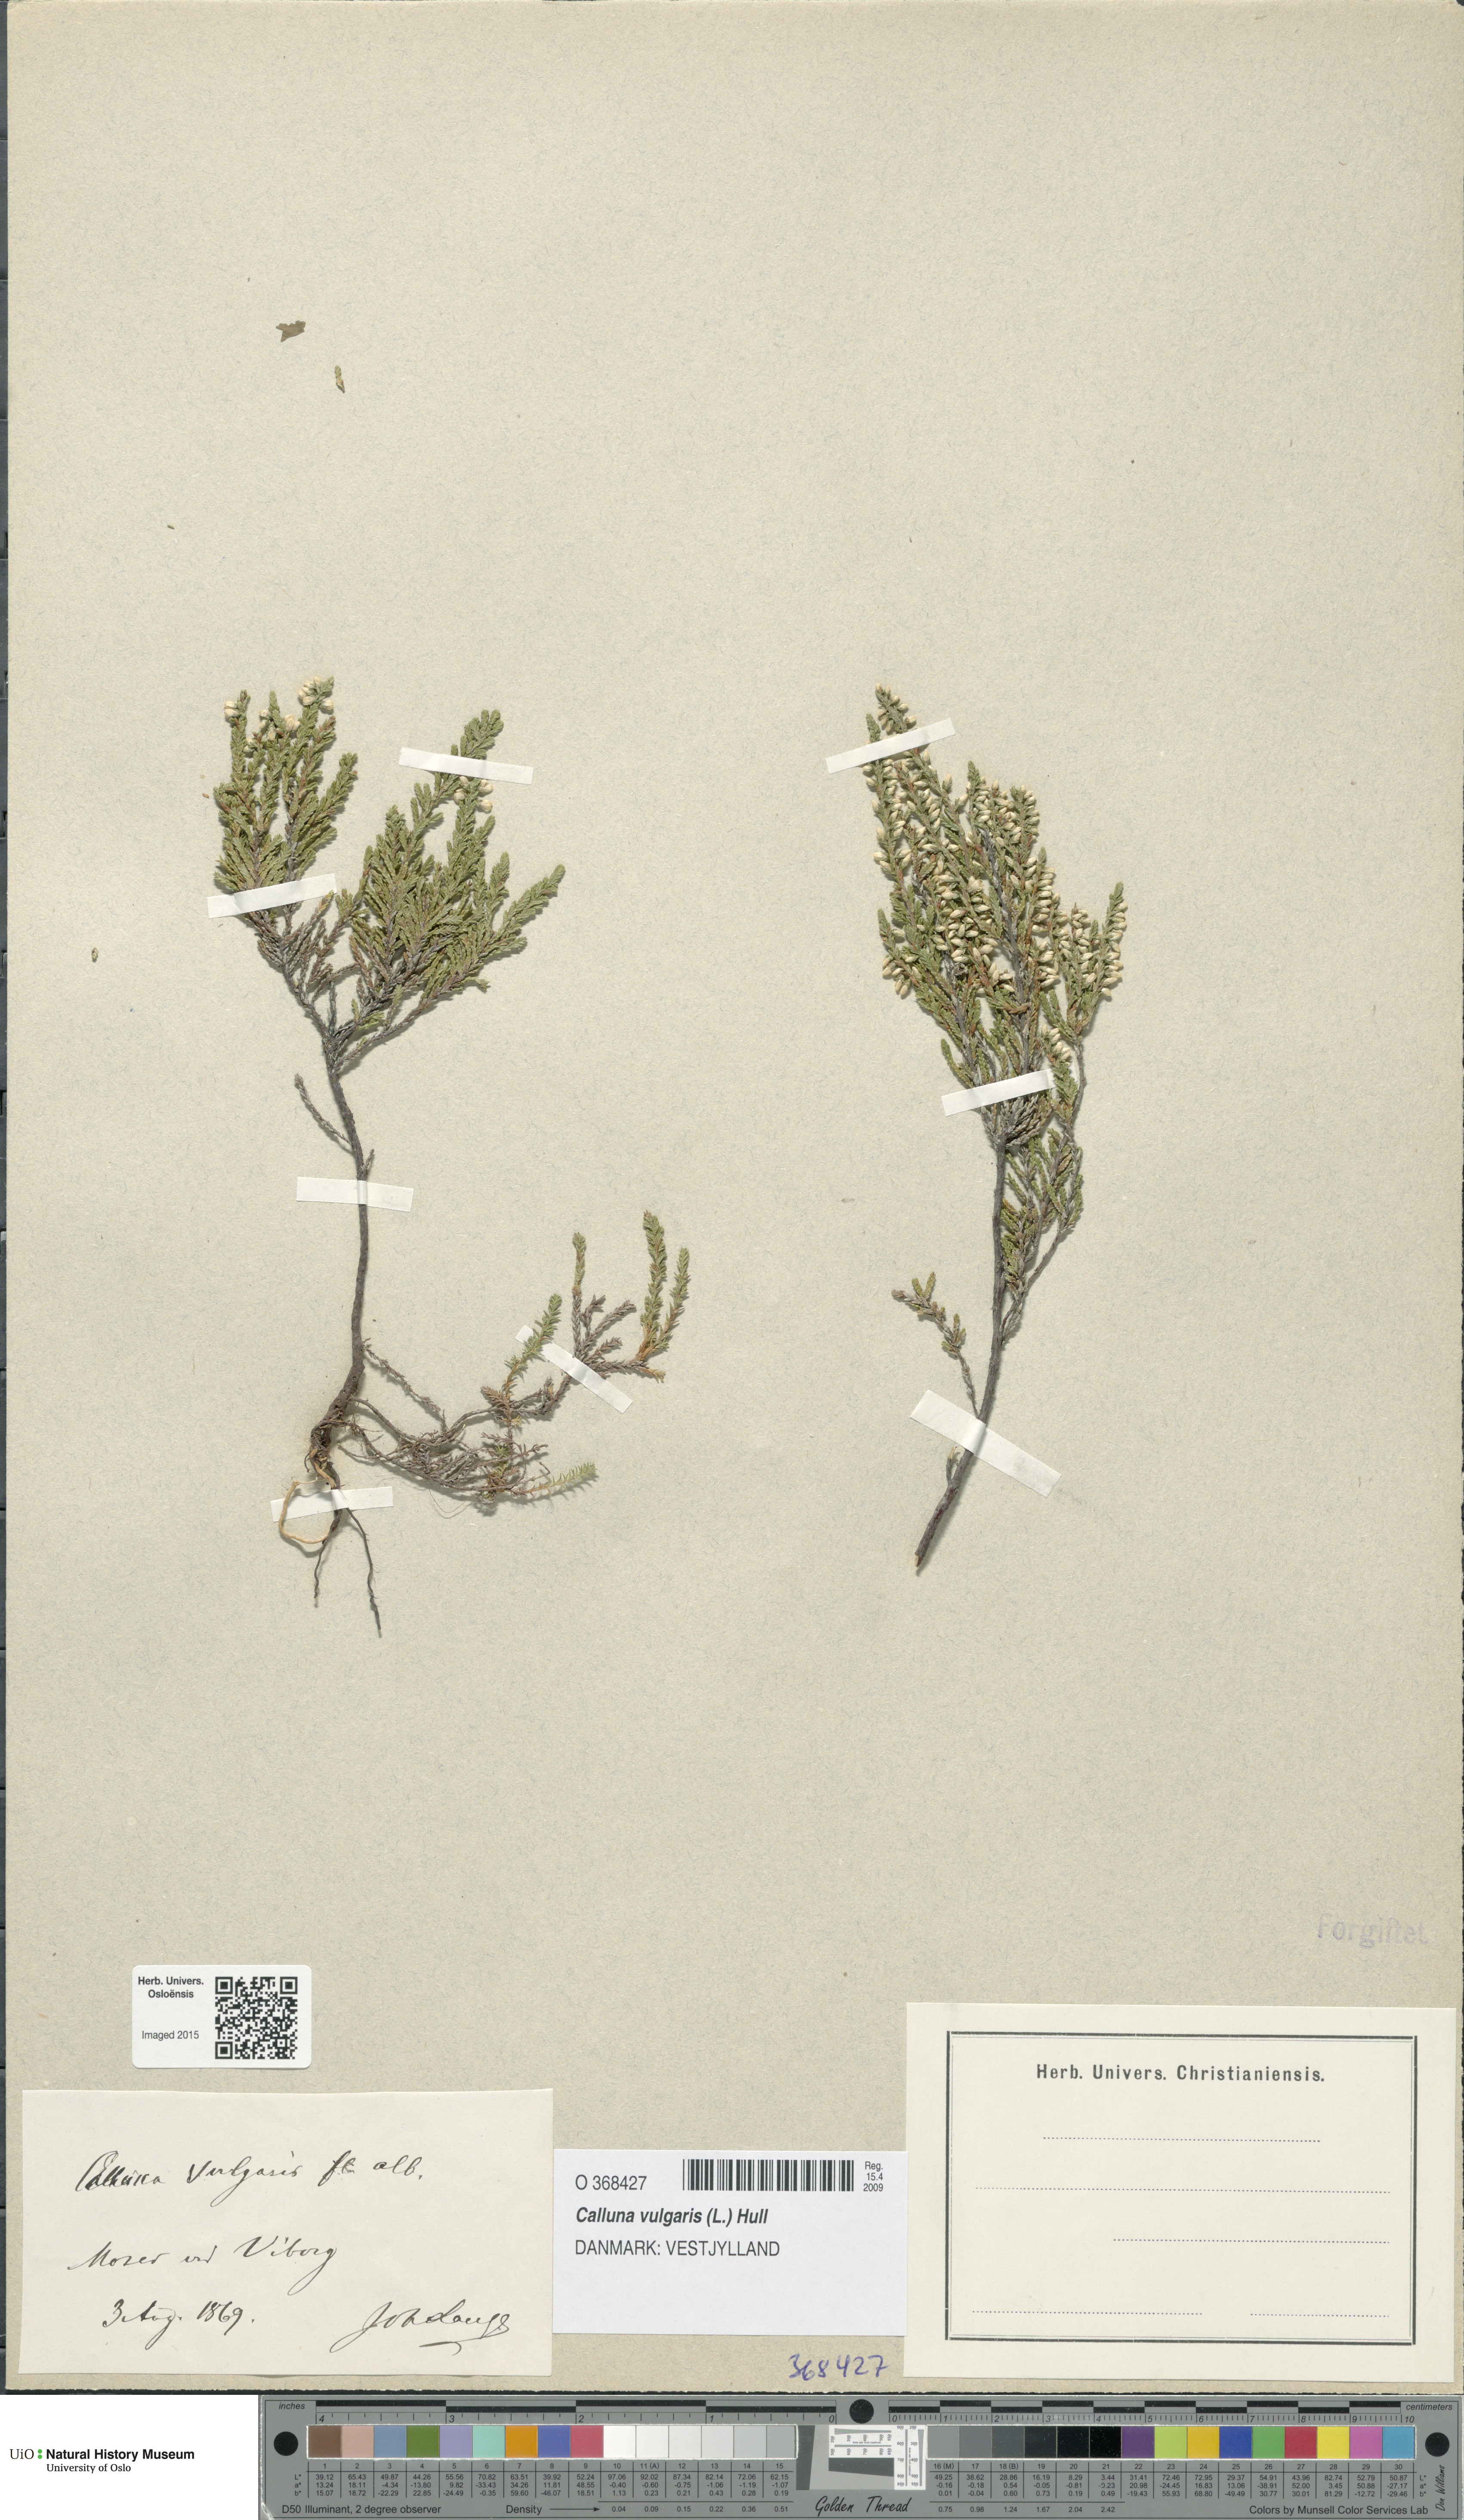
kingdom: Plantae
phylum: Tracheophyta
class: Magnoliopsida
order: Ericales
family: Ericaceae
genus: Calluna
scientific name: Calluna vulgaris
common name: Heather
